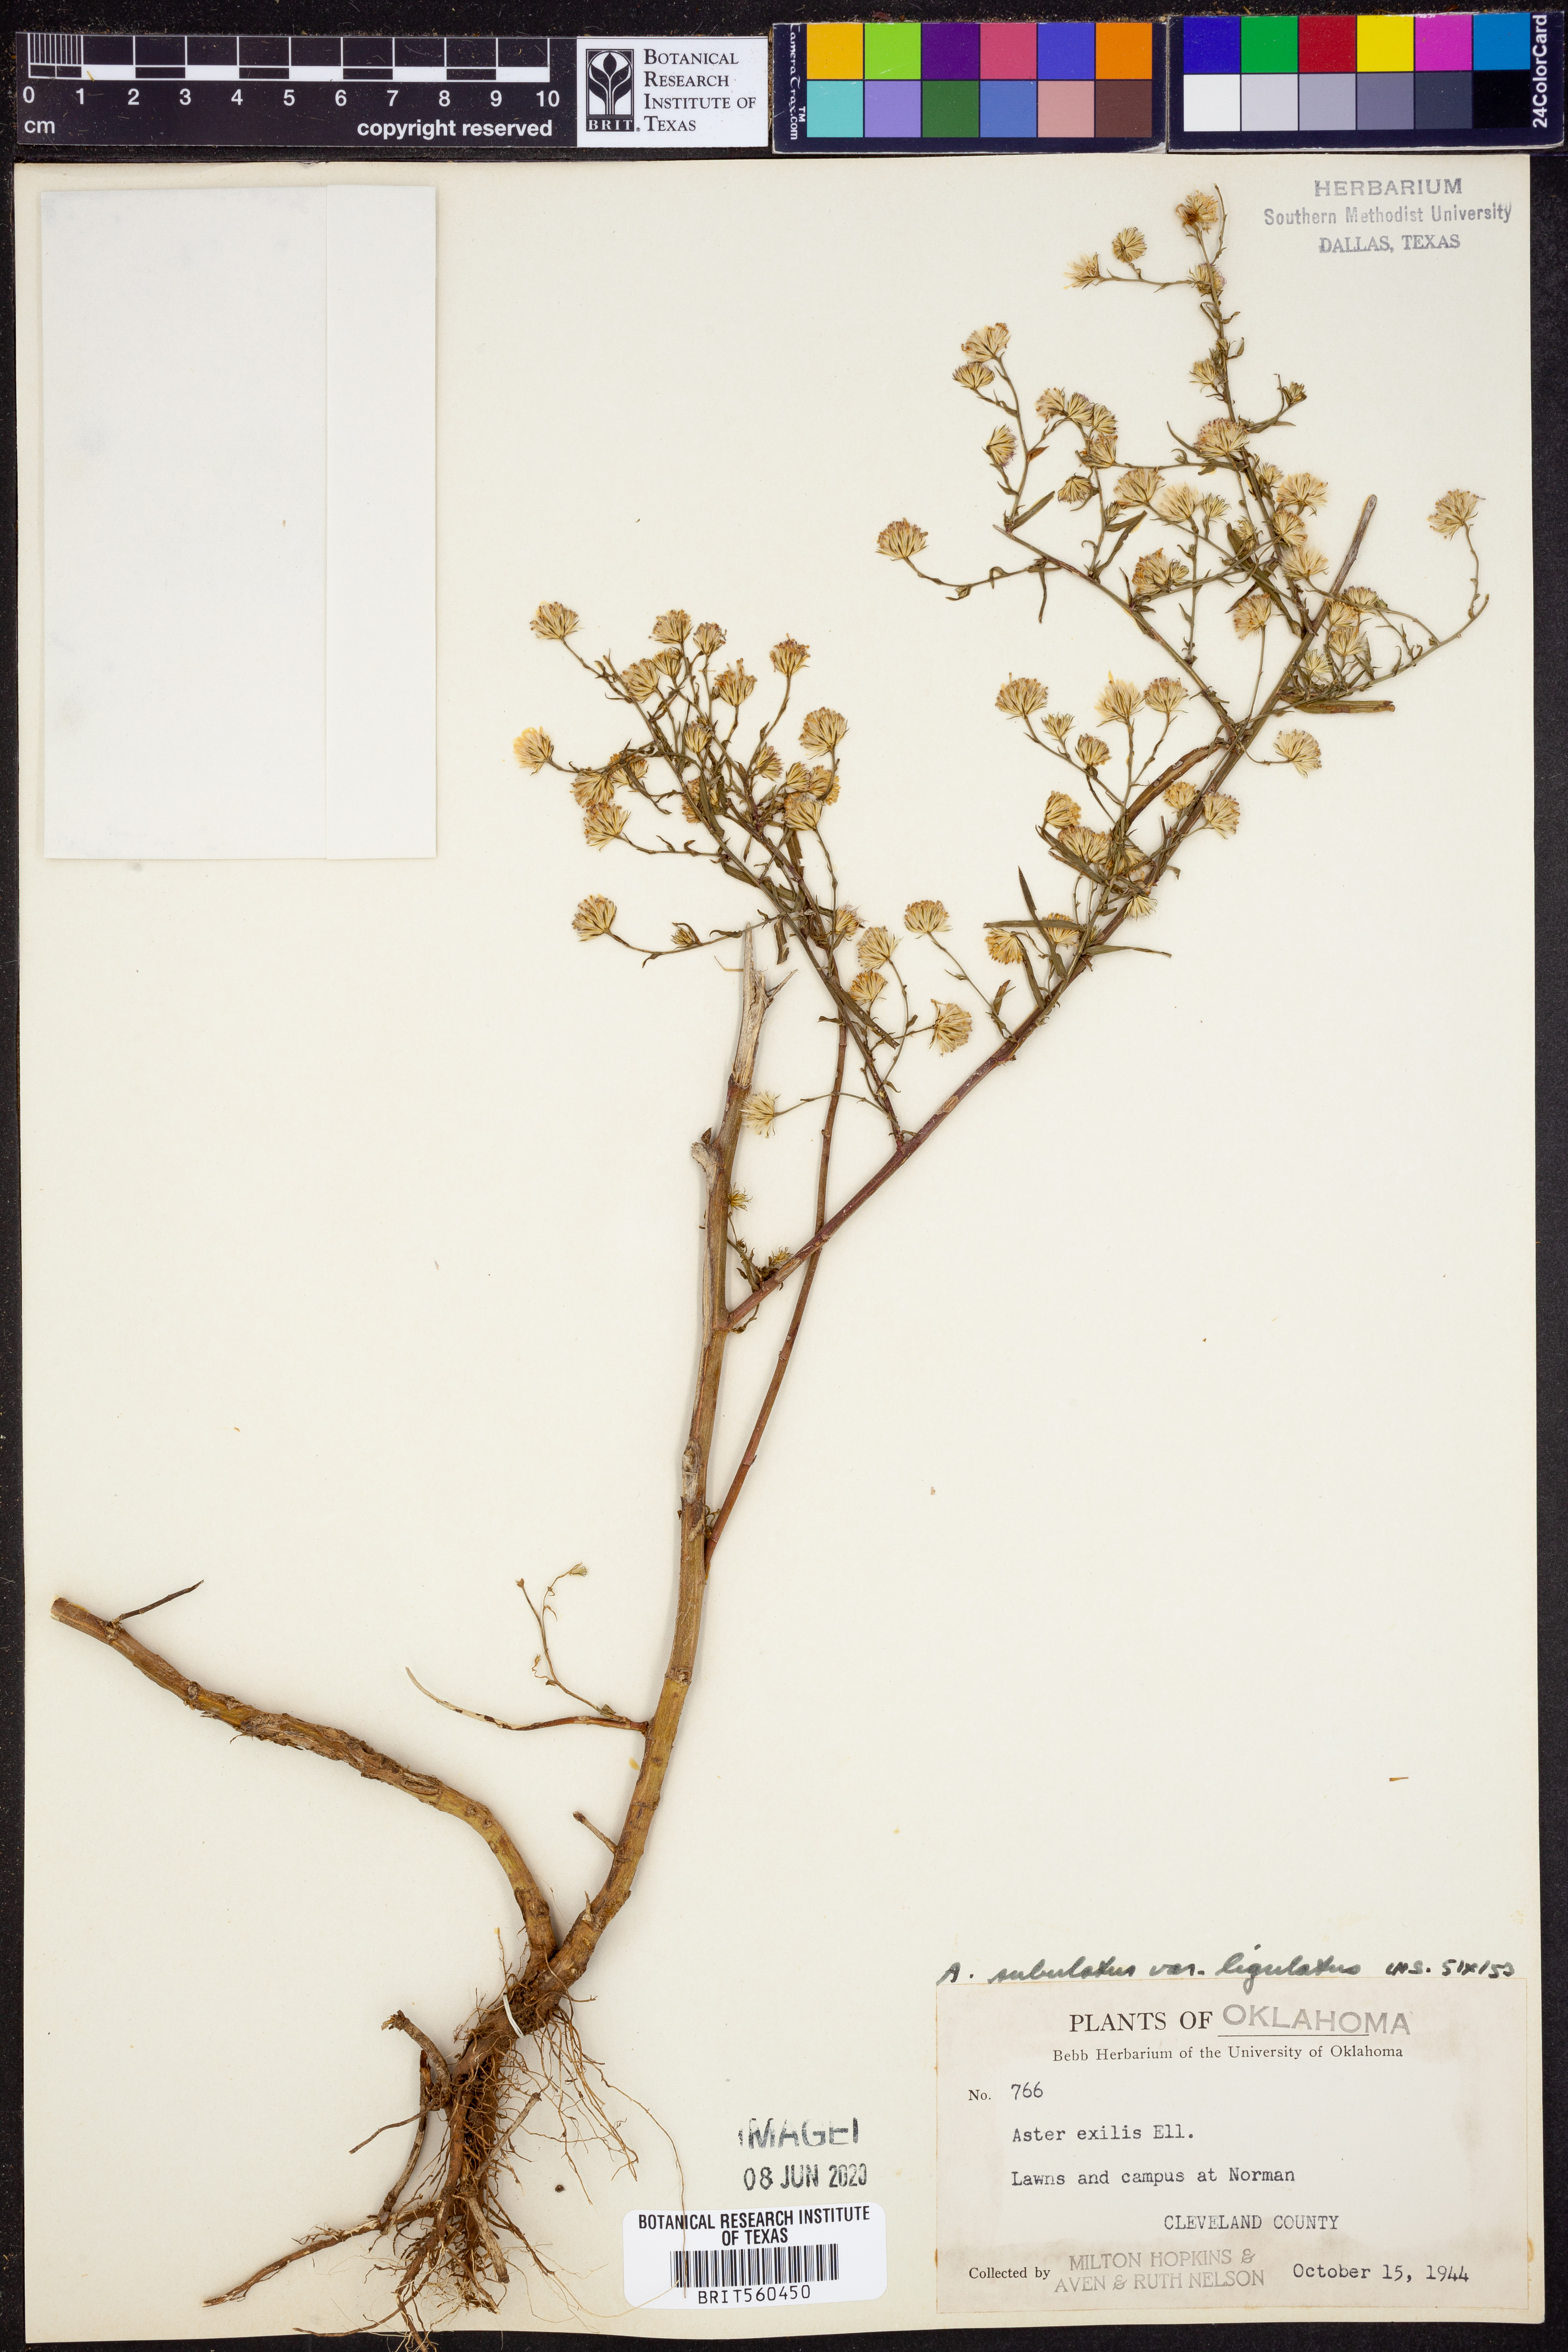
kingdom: Plantae
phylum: Tracheophyta
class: Magnoliopsida
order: Asterales
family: Asteraceae
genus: Symphyotrichum
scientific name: Symphyotrichum divaricatum
